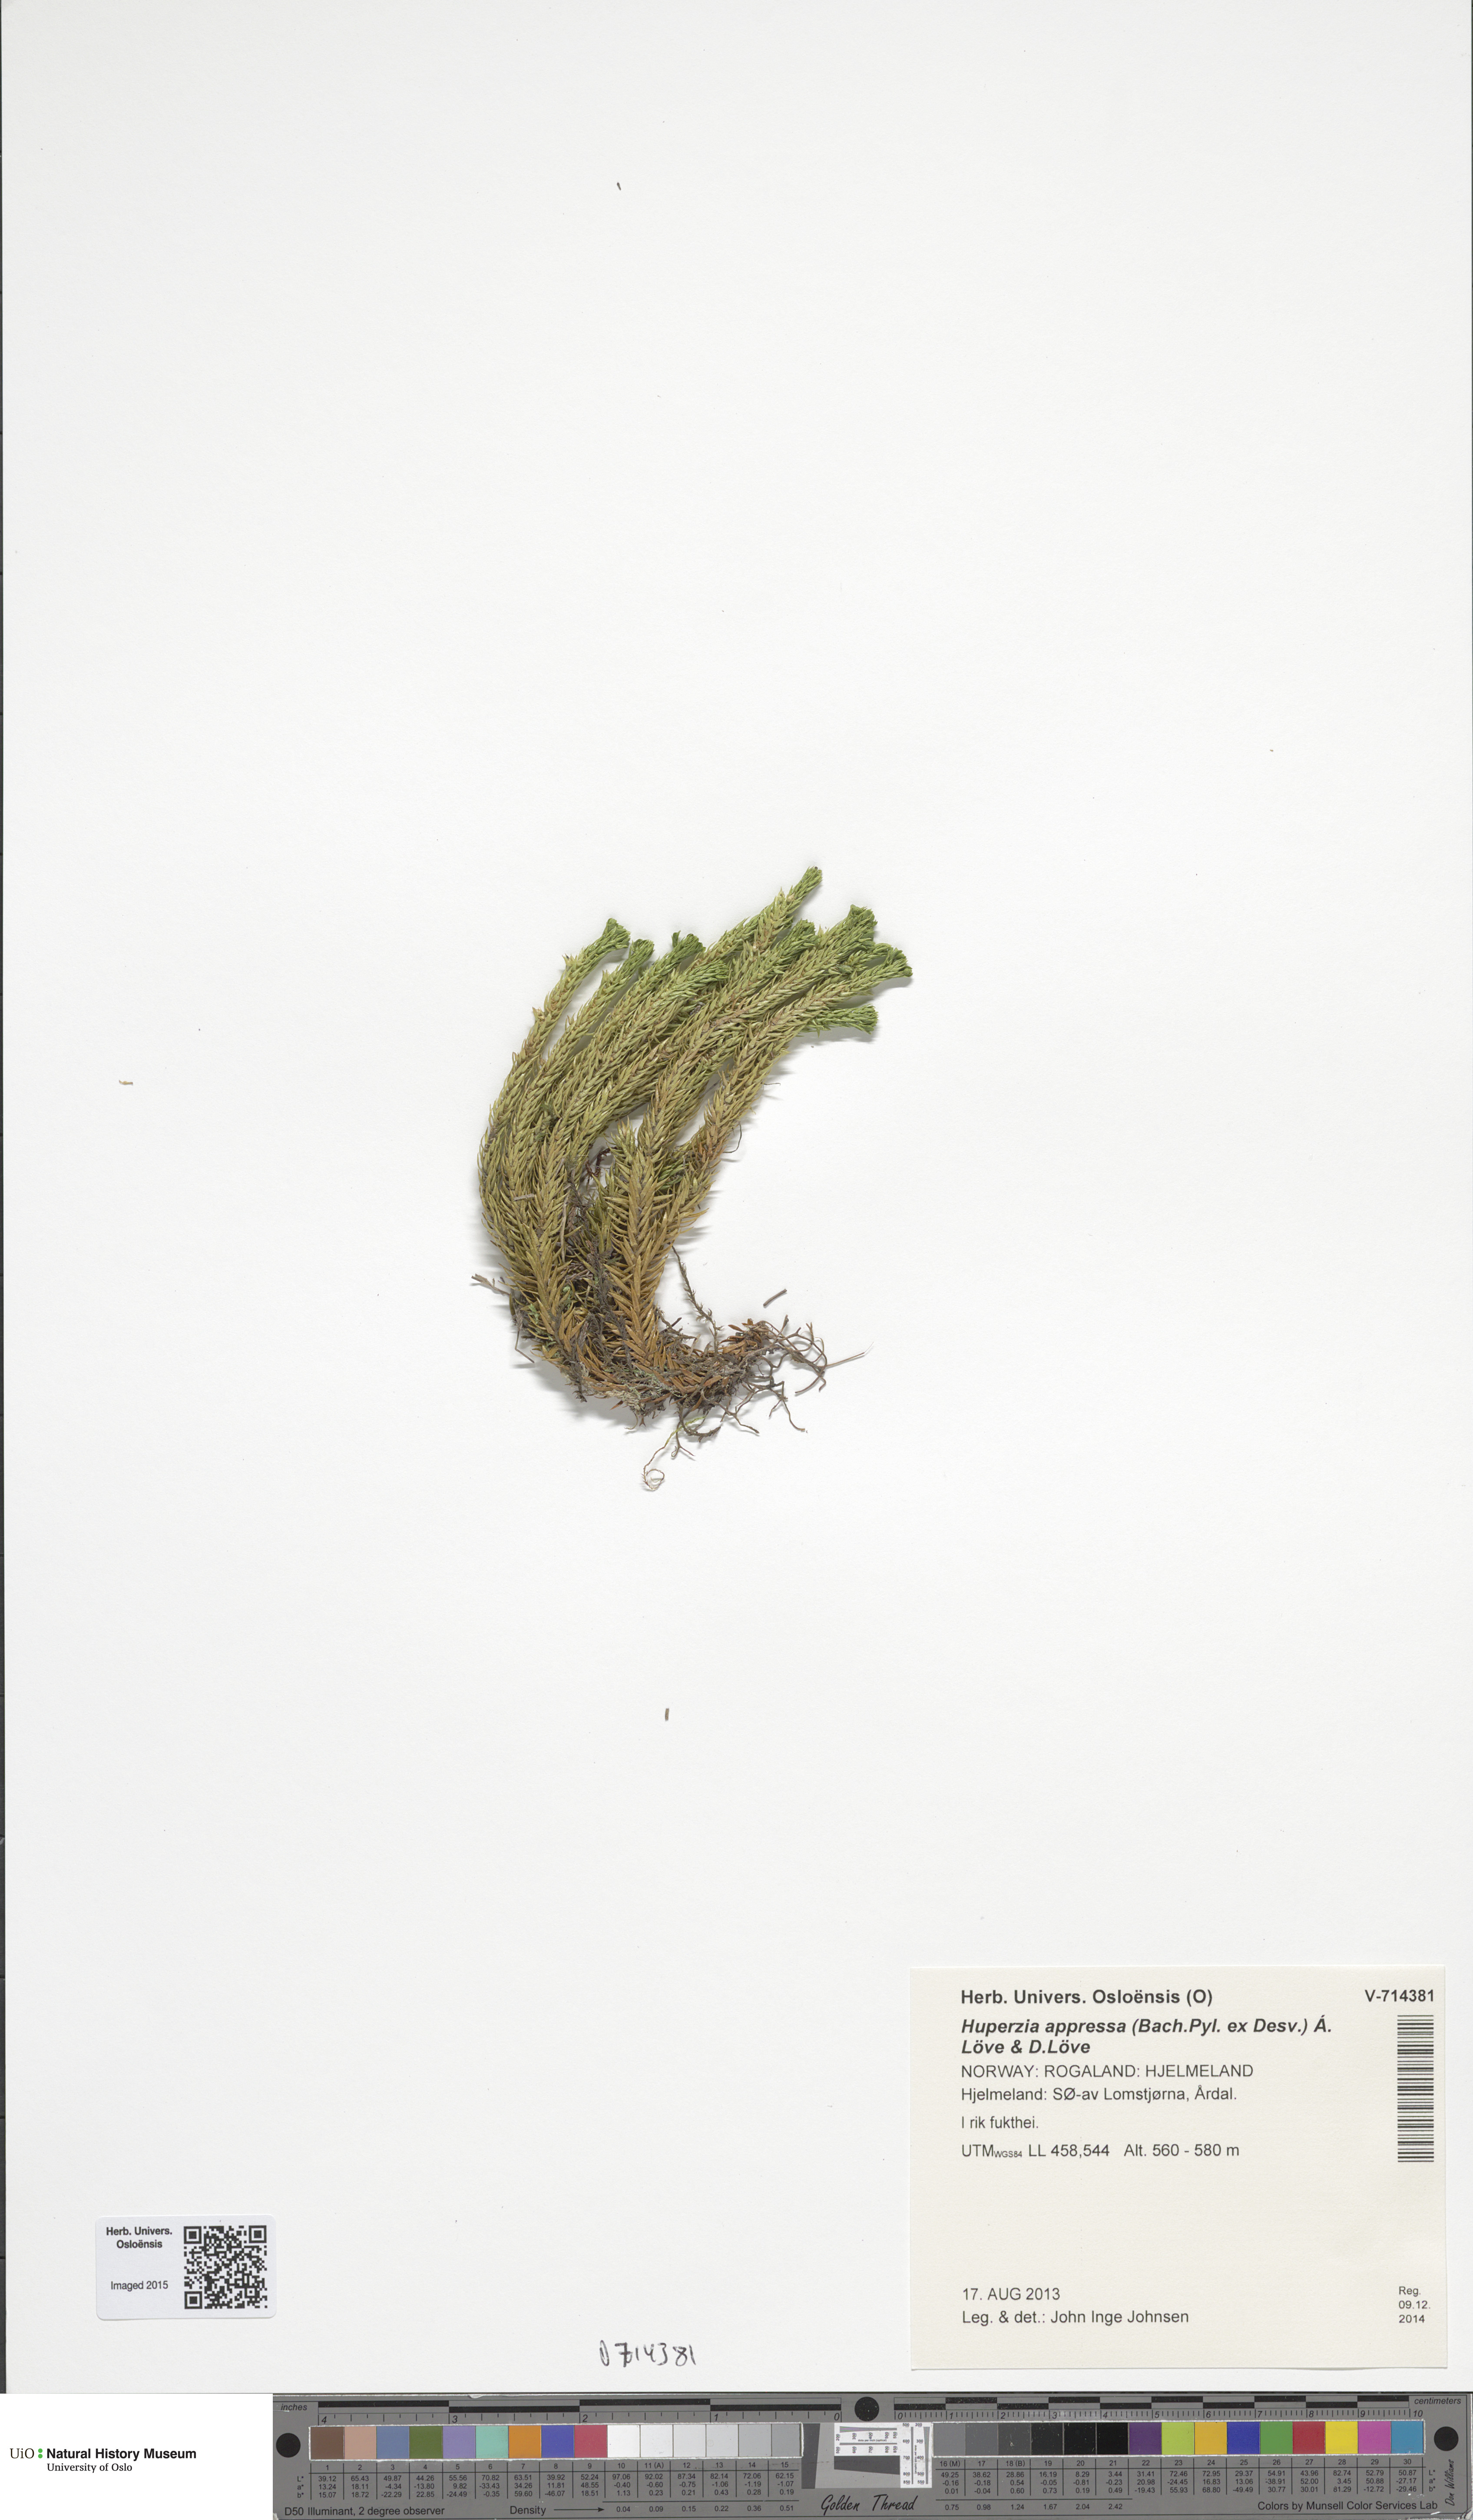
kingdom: Plantae
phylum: Tracheophyta
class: Lycopodiopsida
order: Lycopodiales
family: Lycopodiaceae
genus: Huperzia
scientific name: Huperzia selago
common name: Northern firmoss
